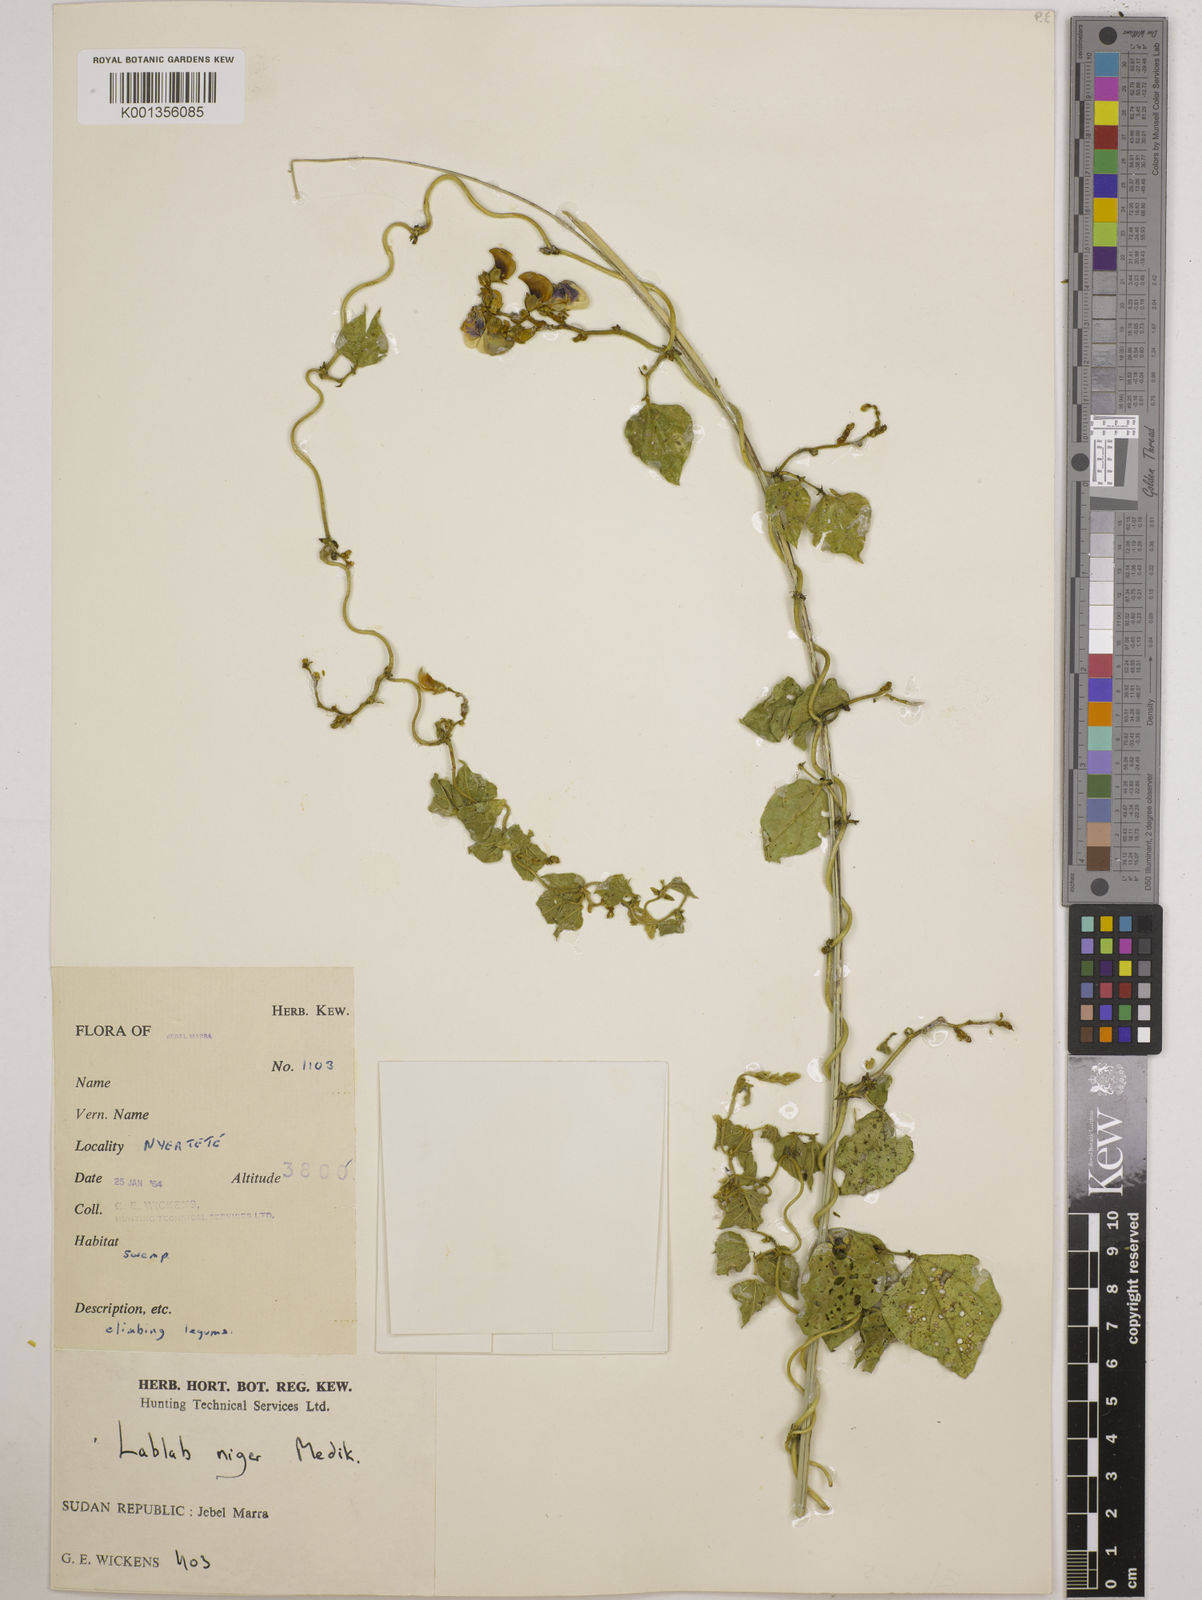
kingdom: Plantae
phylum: Tracheophyta
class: Magnoliopsida
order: Fabales
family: Fabaceae
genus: Lablab
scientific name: Lablab purpureus
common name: Lablab-bean
